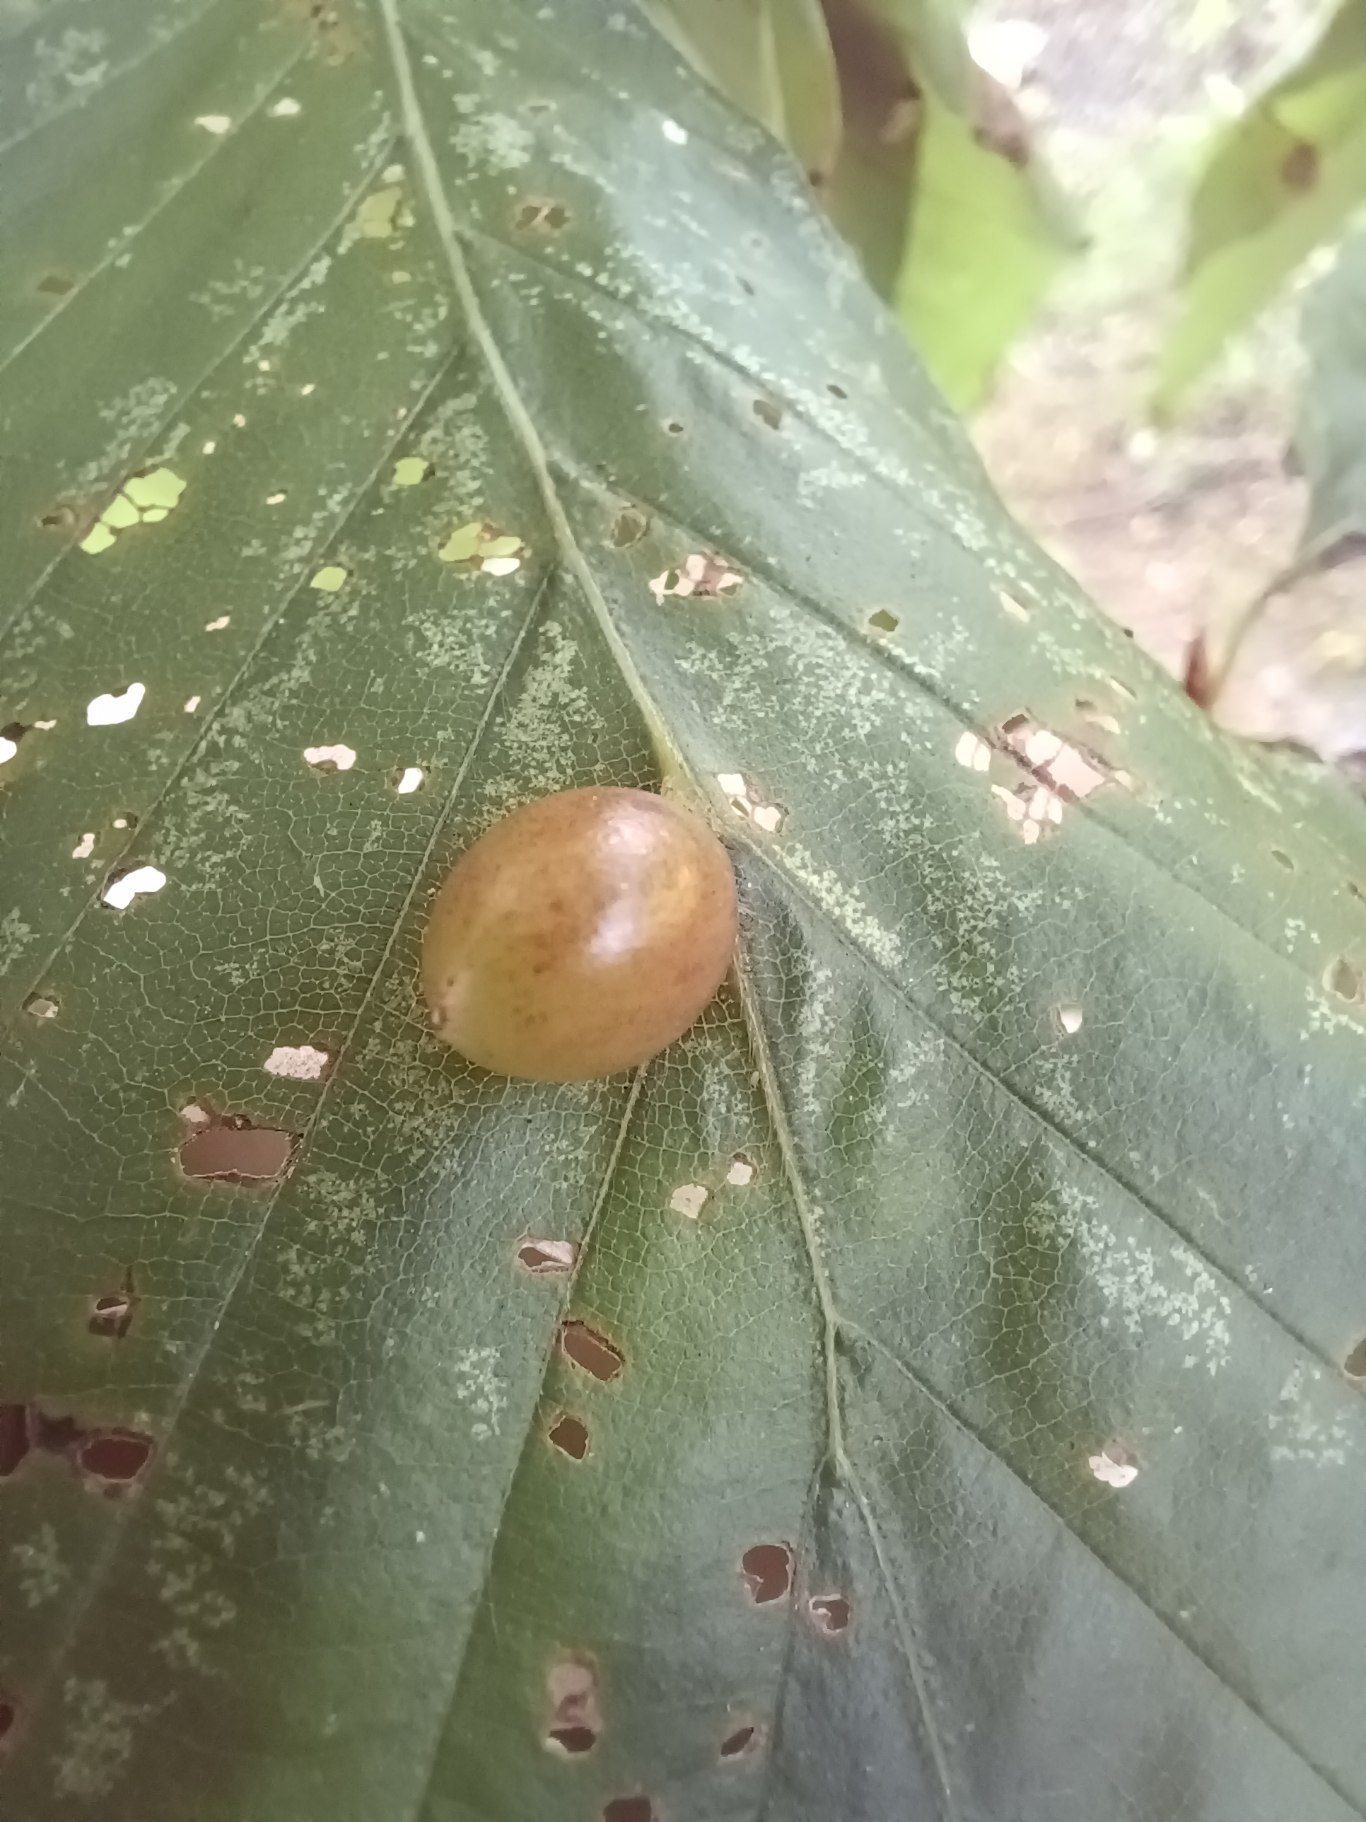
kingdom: Animalia
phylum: Arthropoda
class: Insecta
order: Diptera
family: Cecidomyiidae
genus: Mikiola
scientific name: Mikiola fagi
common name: Bøgegalmyg
